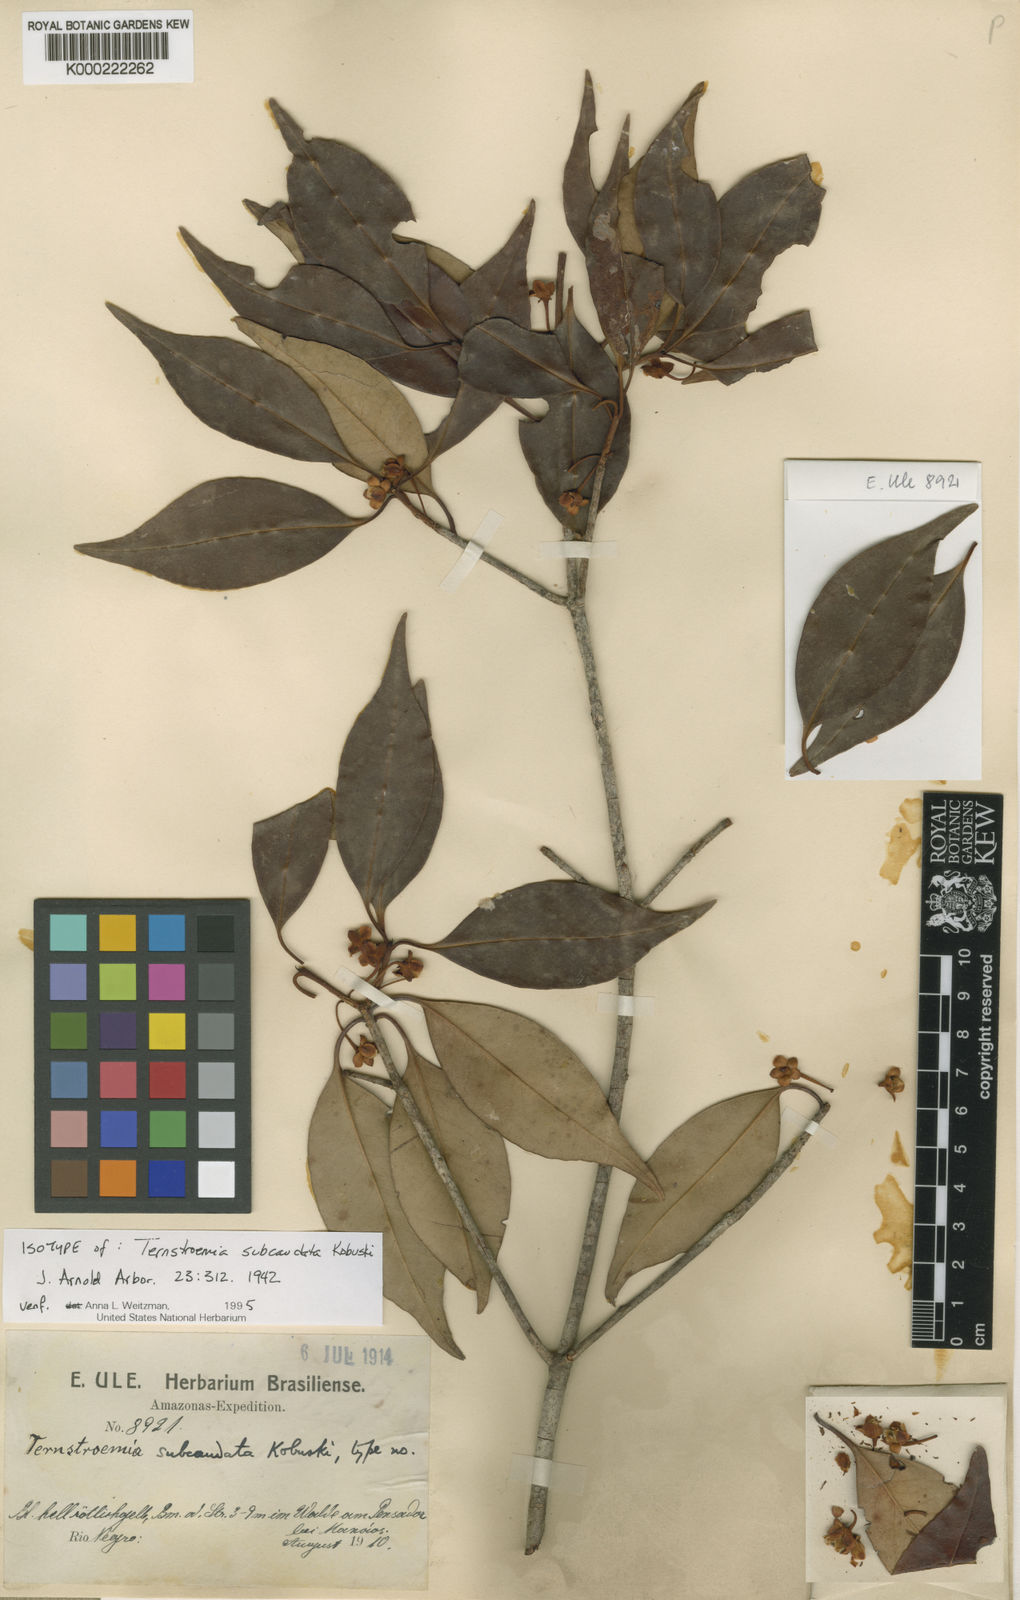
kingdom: Plantae
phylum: Tracheophyta
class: Magnoliopsida
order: Ericales
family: Pentaphylacaceae
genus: Ternstroemia
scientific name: Ternstroemia subcaudata
